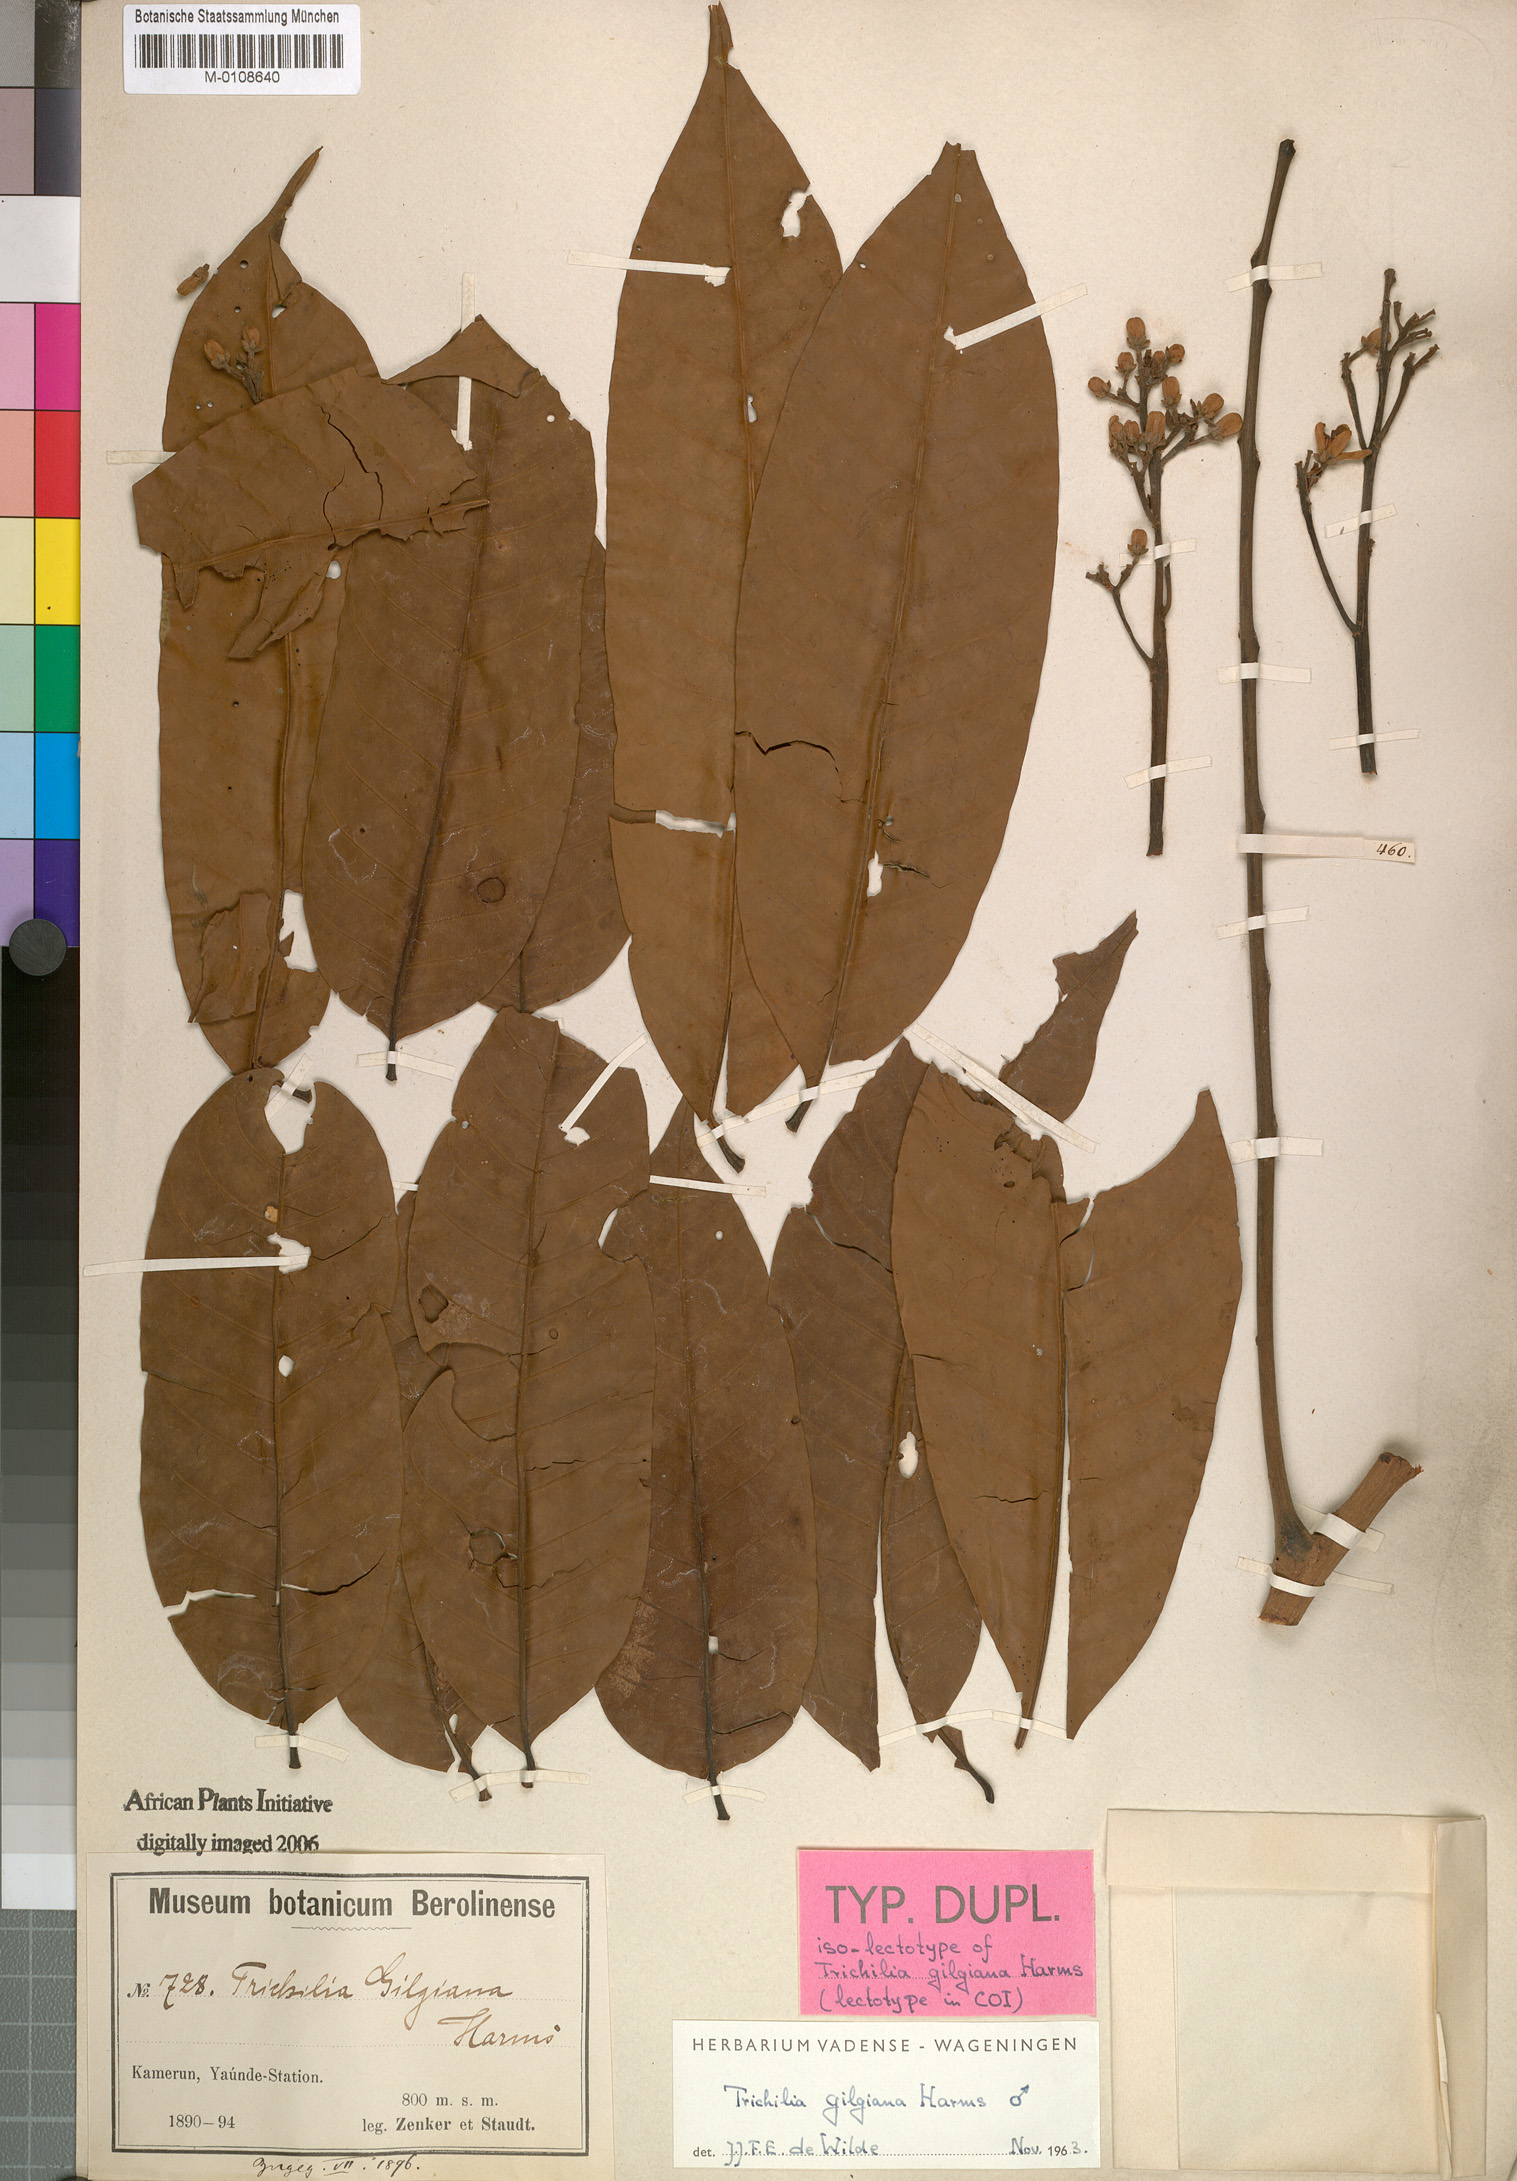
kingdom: Plantae
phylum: Tracheophyta
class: Magnoliopsida
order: Sapindales
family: Meliaceae
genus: Trichilia
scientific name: Trichilia gilgiana
